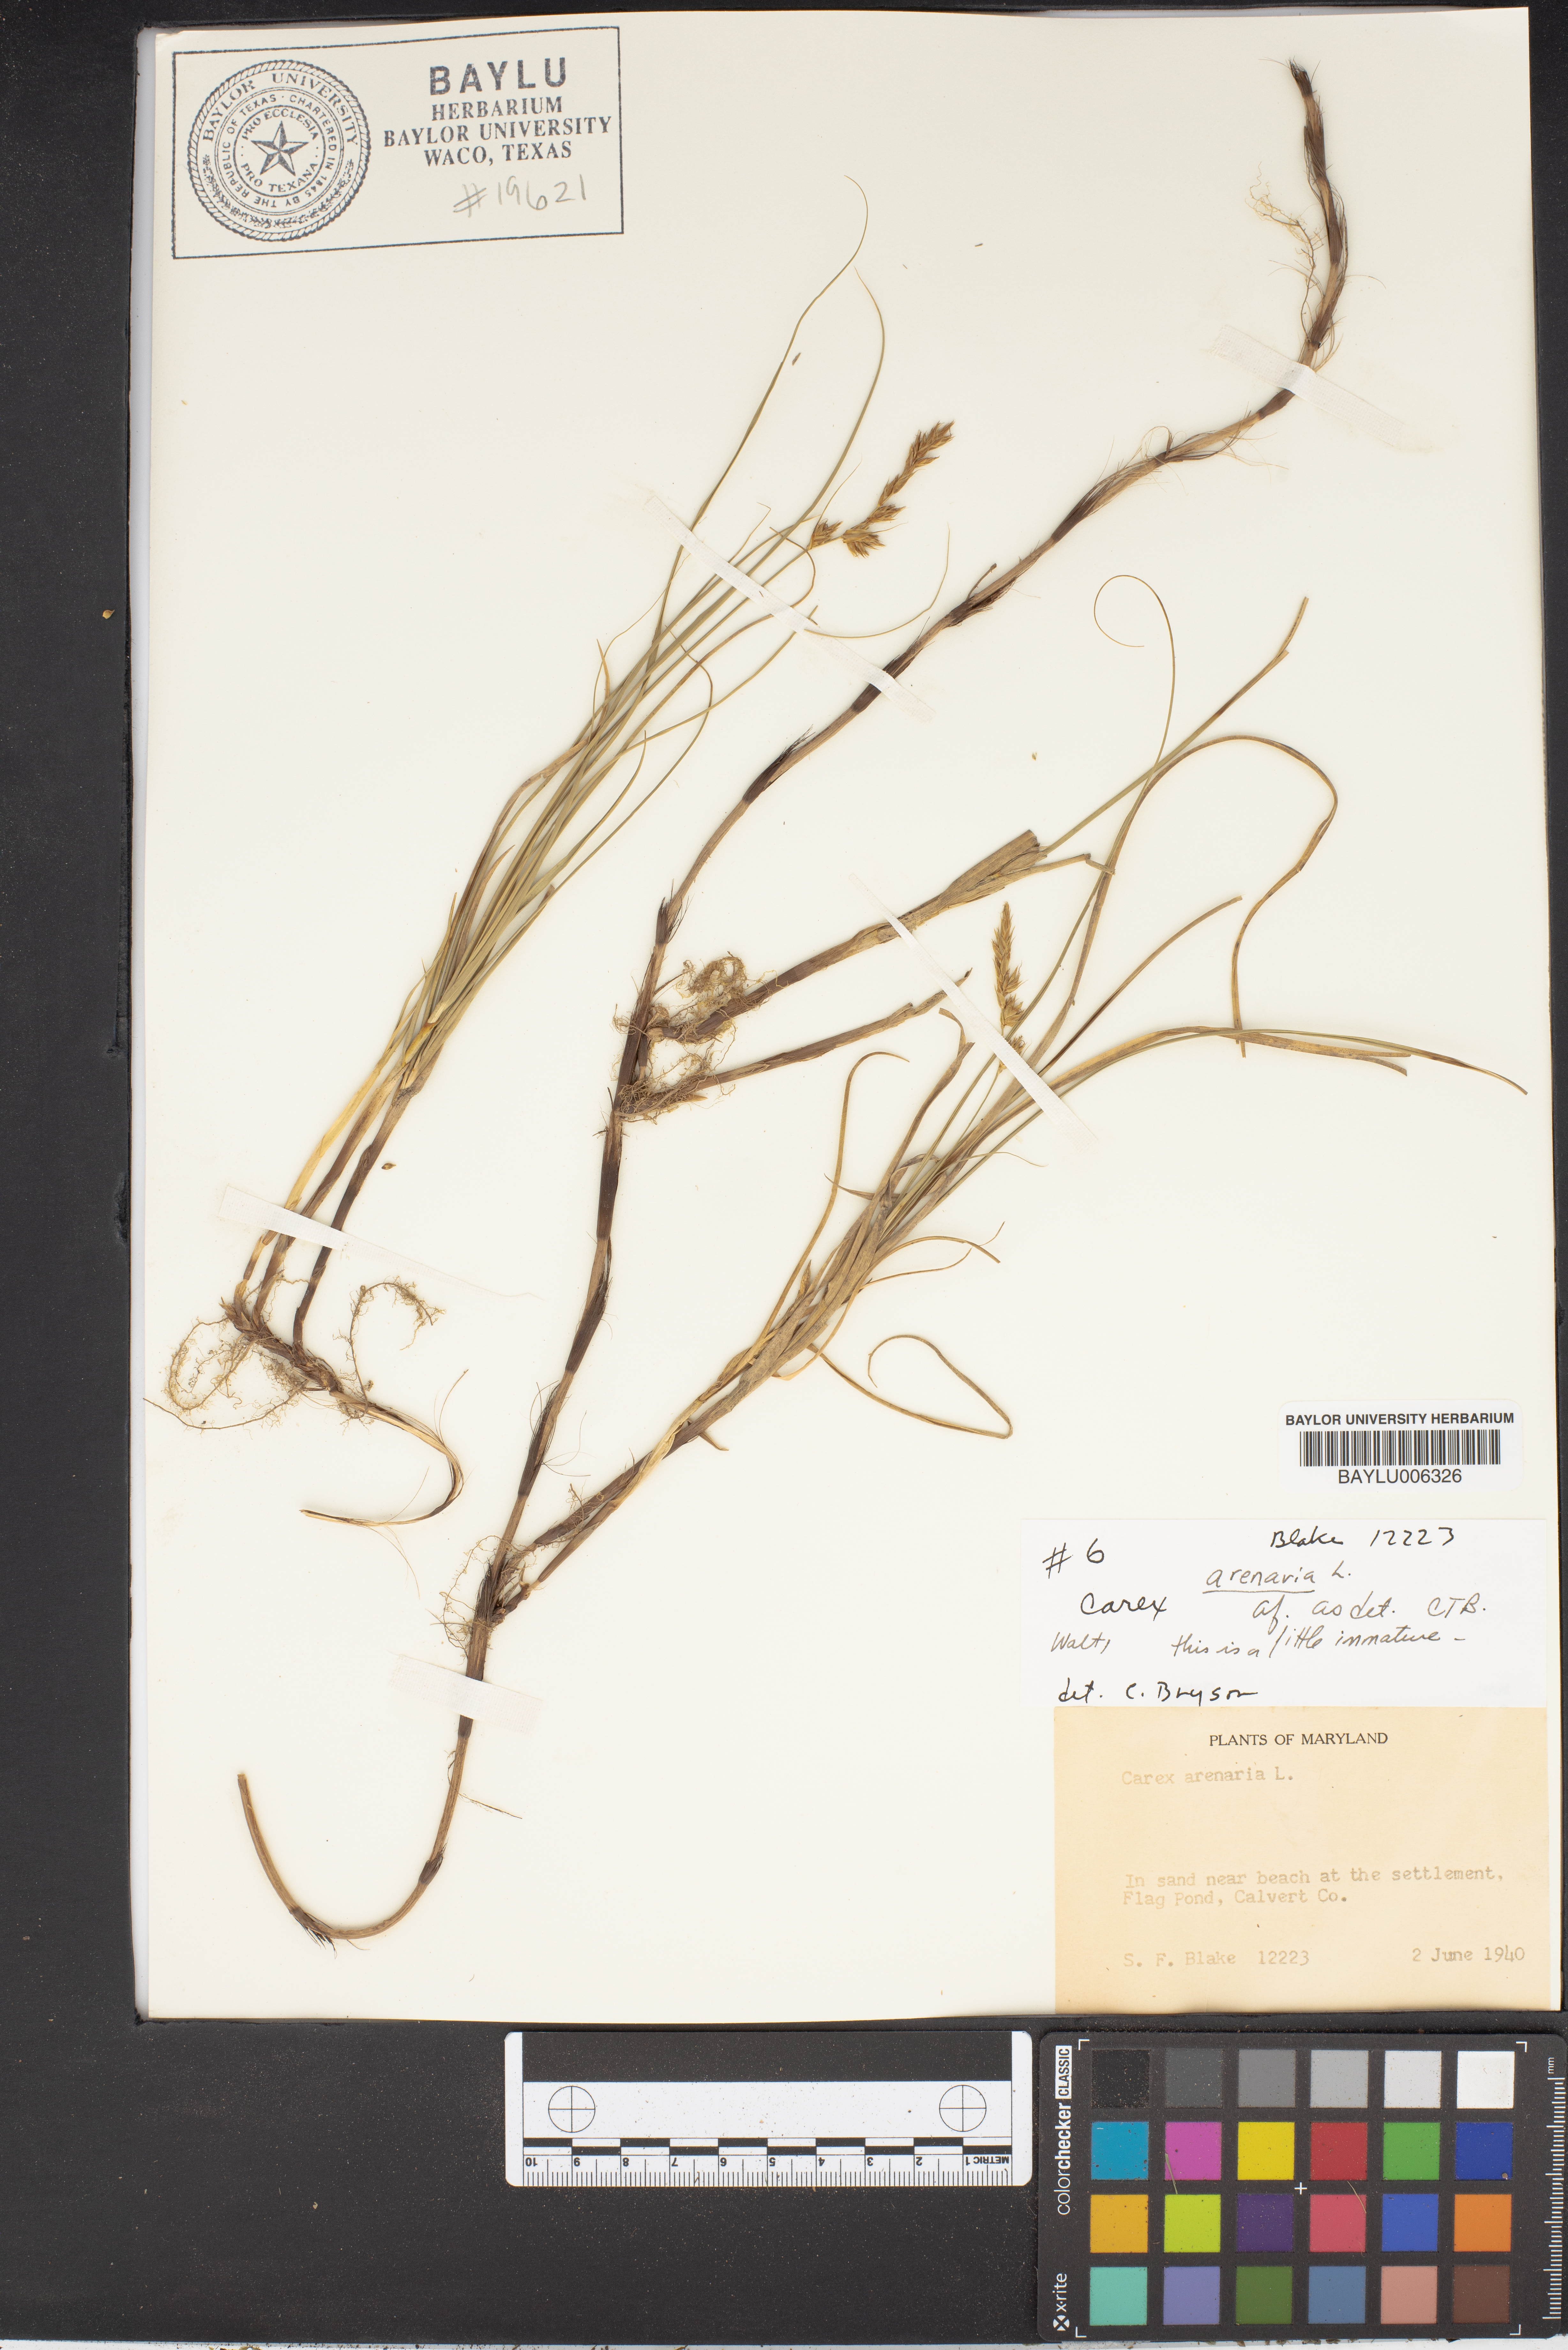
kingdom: Plantae
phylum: Tracheophyta
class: Liliopsida
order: Poales
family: Cyperaceae
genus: Carex
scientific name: Carex arenaria
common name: Sand sedge
